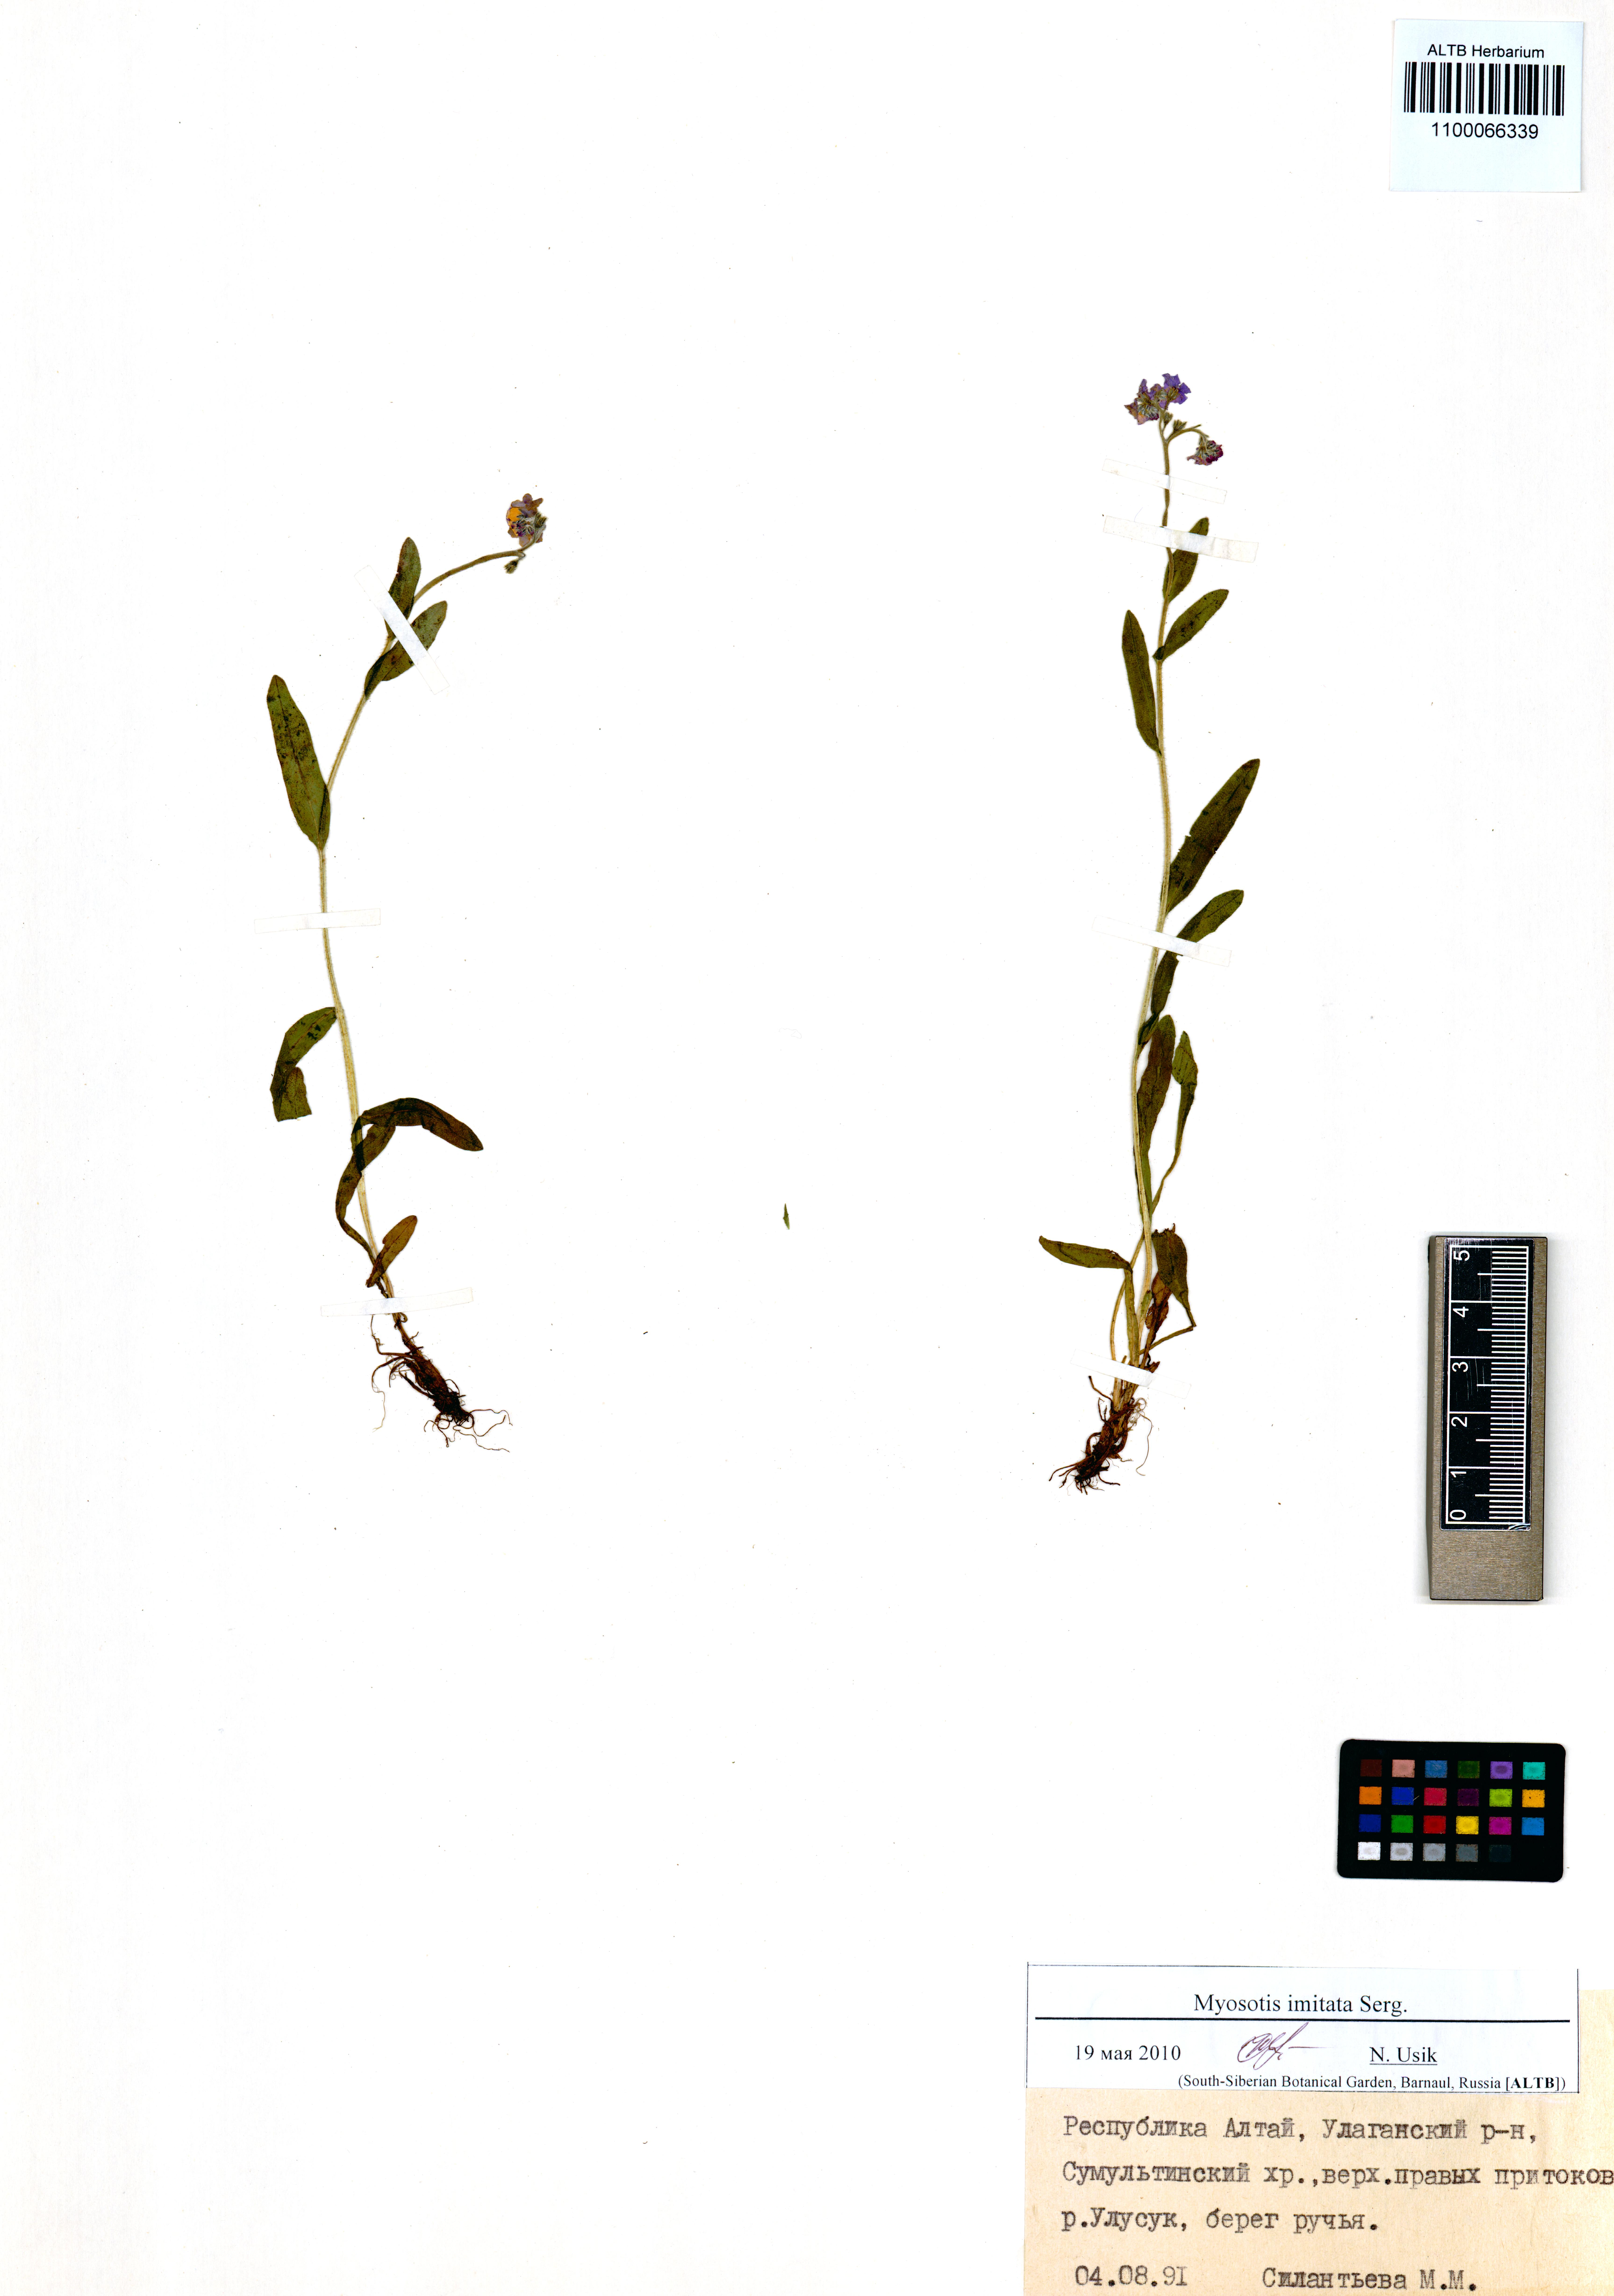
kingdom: Plantae
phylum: Tracheophyta
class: Magnoliopsida
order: Boraginales
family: Boraginaceae
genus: Myosotis
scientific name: Myosotis imitata
